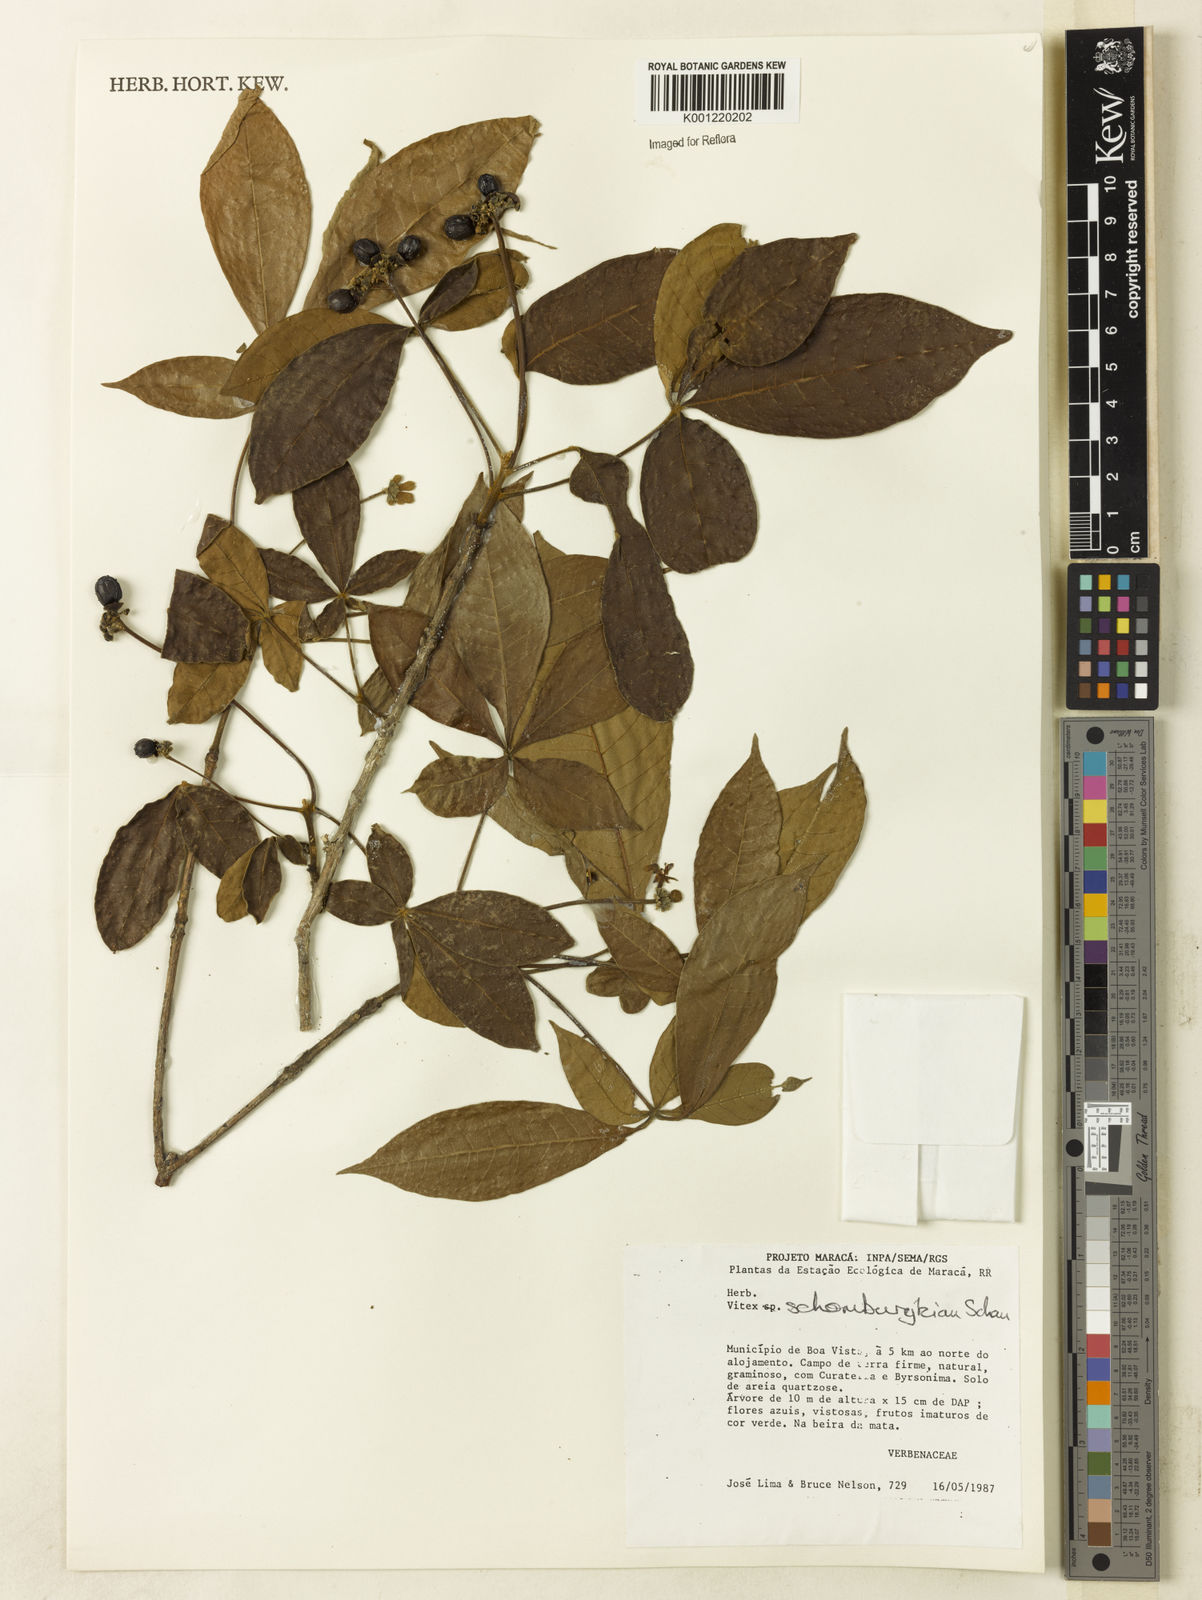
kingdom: Plantae
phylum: Tracheophyta
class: Magnoliopsida
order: Lamiales
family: Lamiaceae
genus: Vitex
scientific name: Vitex schomburgkiana
